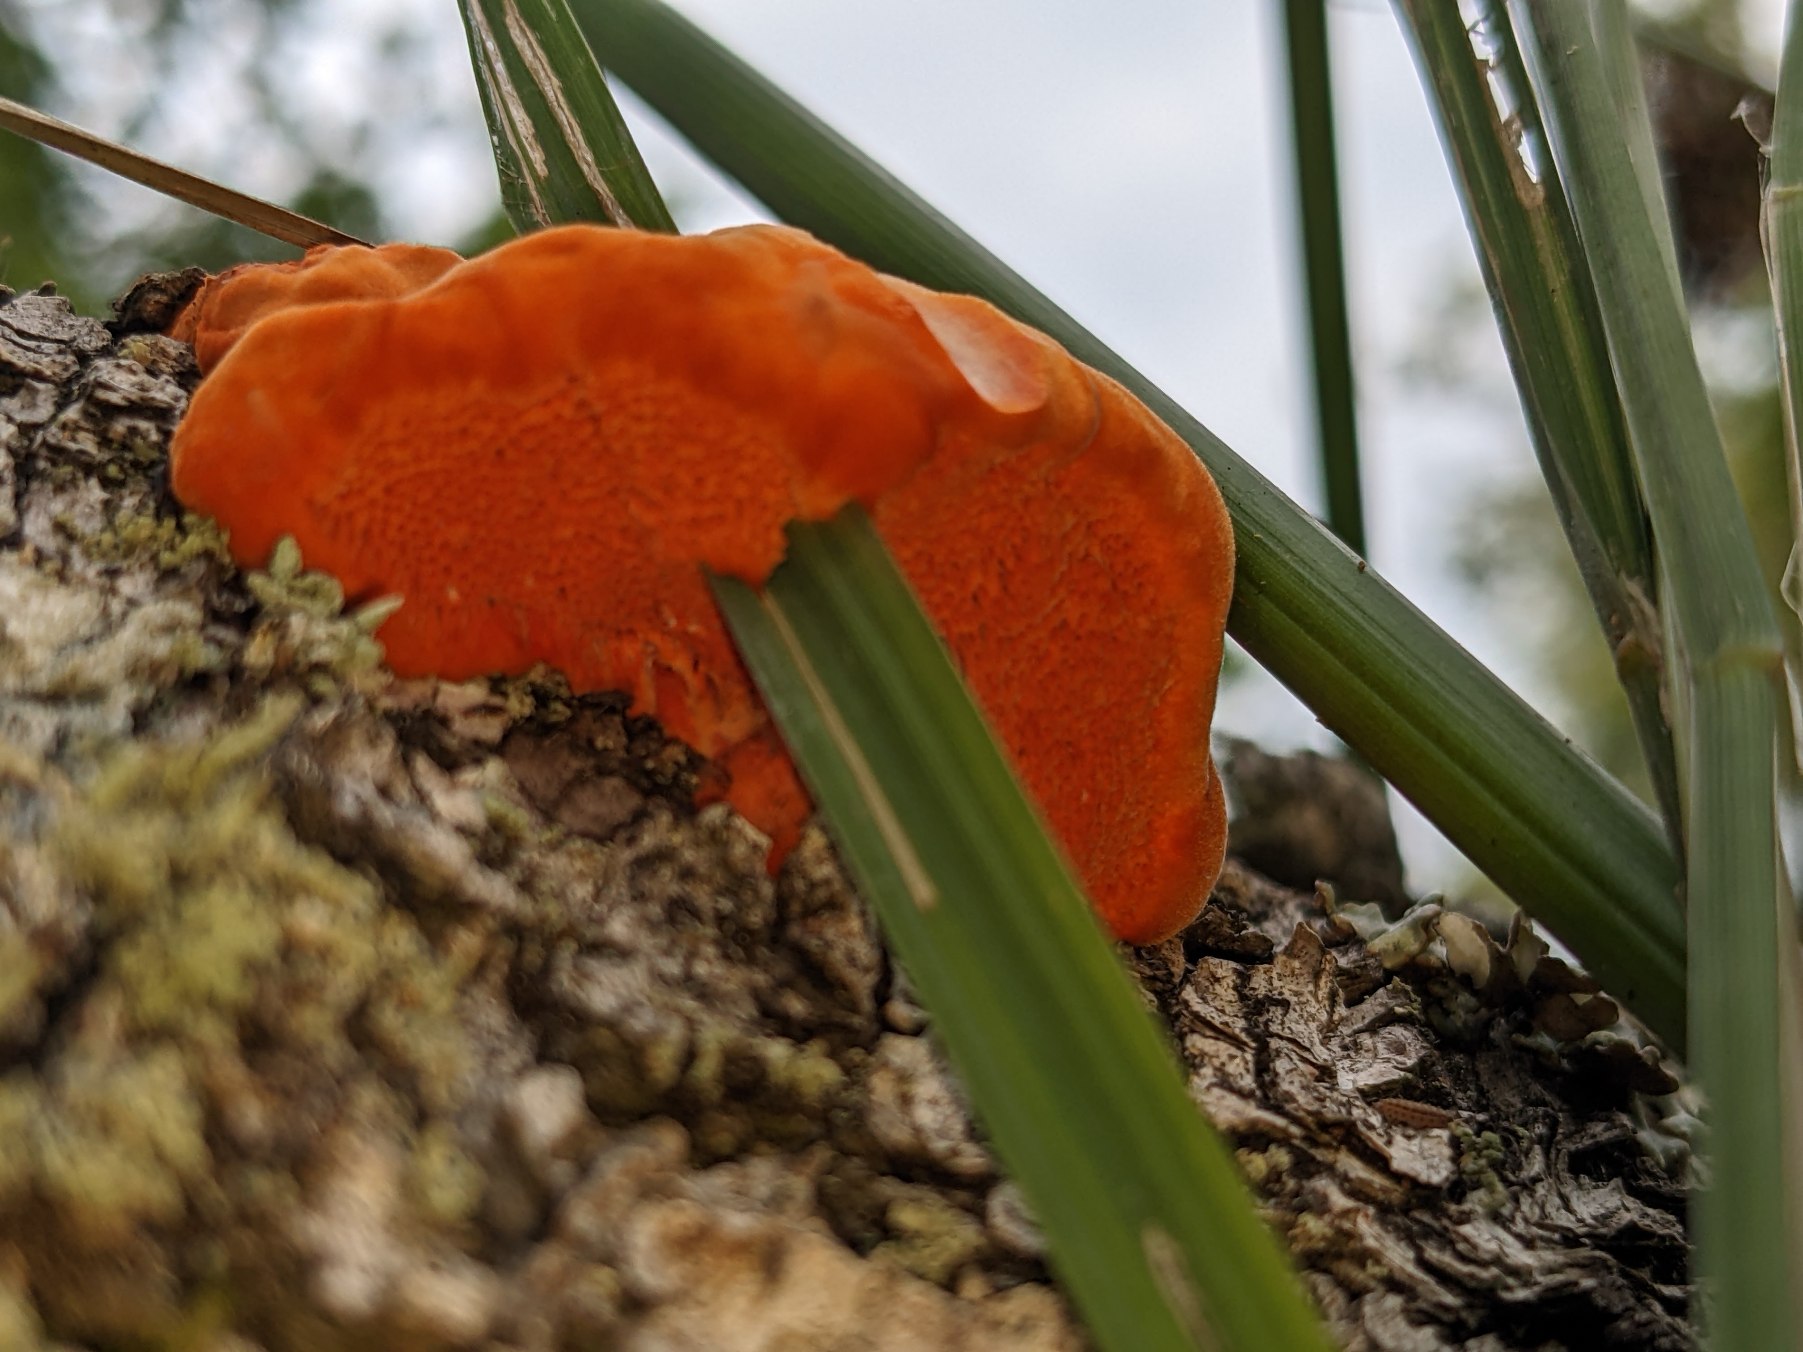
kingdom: Fungi
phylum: Basidiomycota
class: Agaricomycetes
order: Polyporales
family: Polyporaceae
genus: Trametes
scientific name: Trametes cinnabarina
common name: Cinnoberporesvamp
